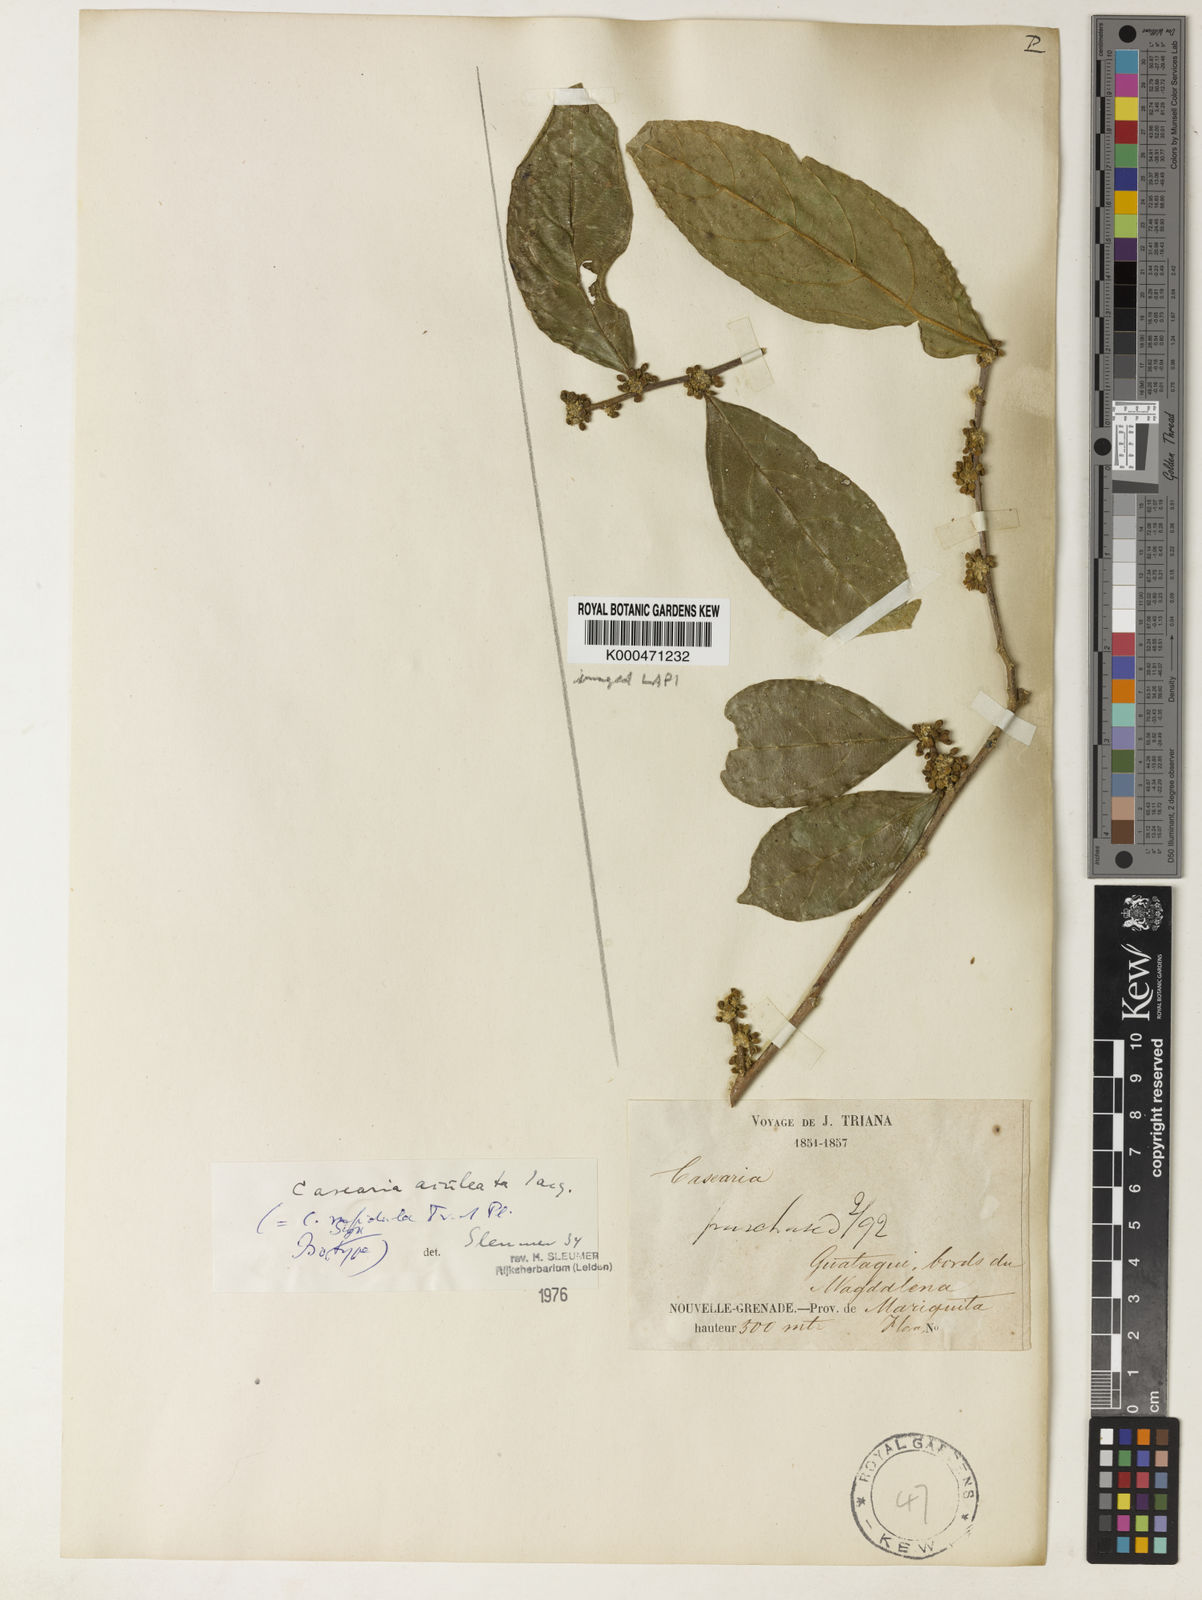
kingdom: Plantae
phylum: Tracheophyta
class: Magnoliopsida
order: Malpighiales
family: Salicaceae
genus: Casearia
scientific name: Casearia aculeata
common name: Cockspur
